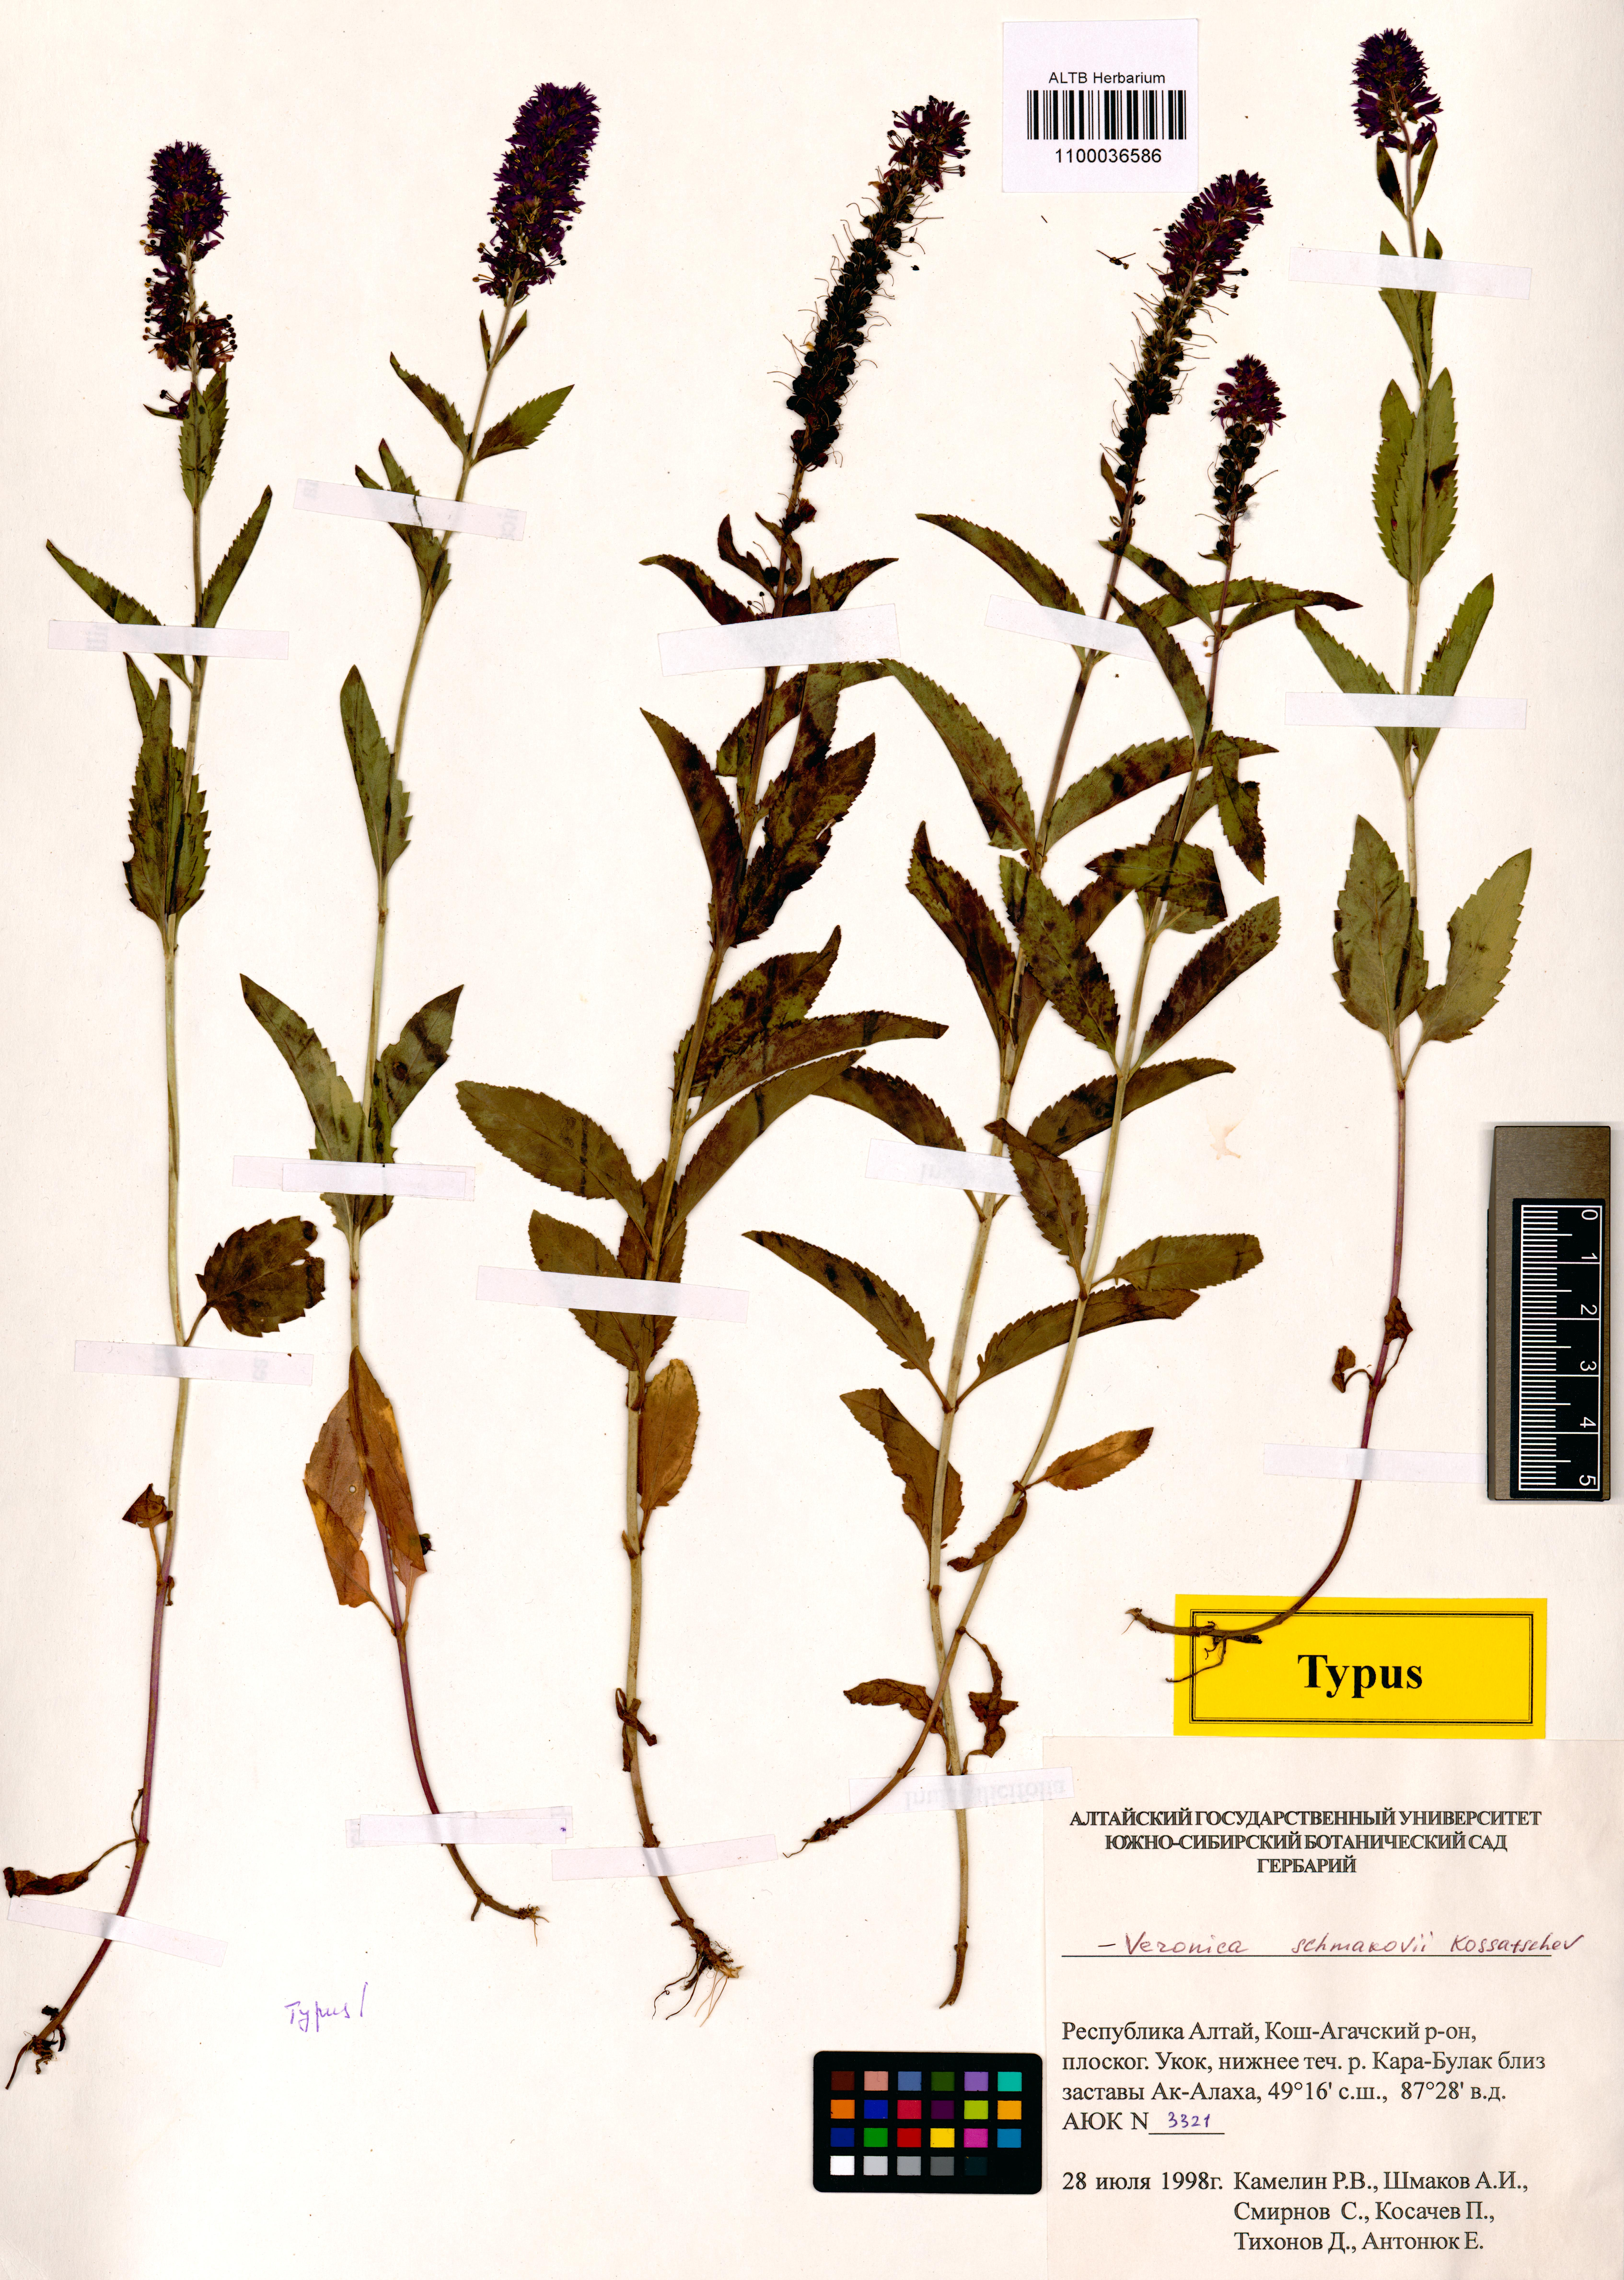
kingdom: Plantae
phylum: Tracheophyta
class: Magnoliopsida
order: Lamiales
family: Plantaginaceae
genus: Veronica
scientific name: Veronica schmakovii
